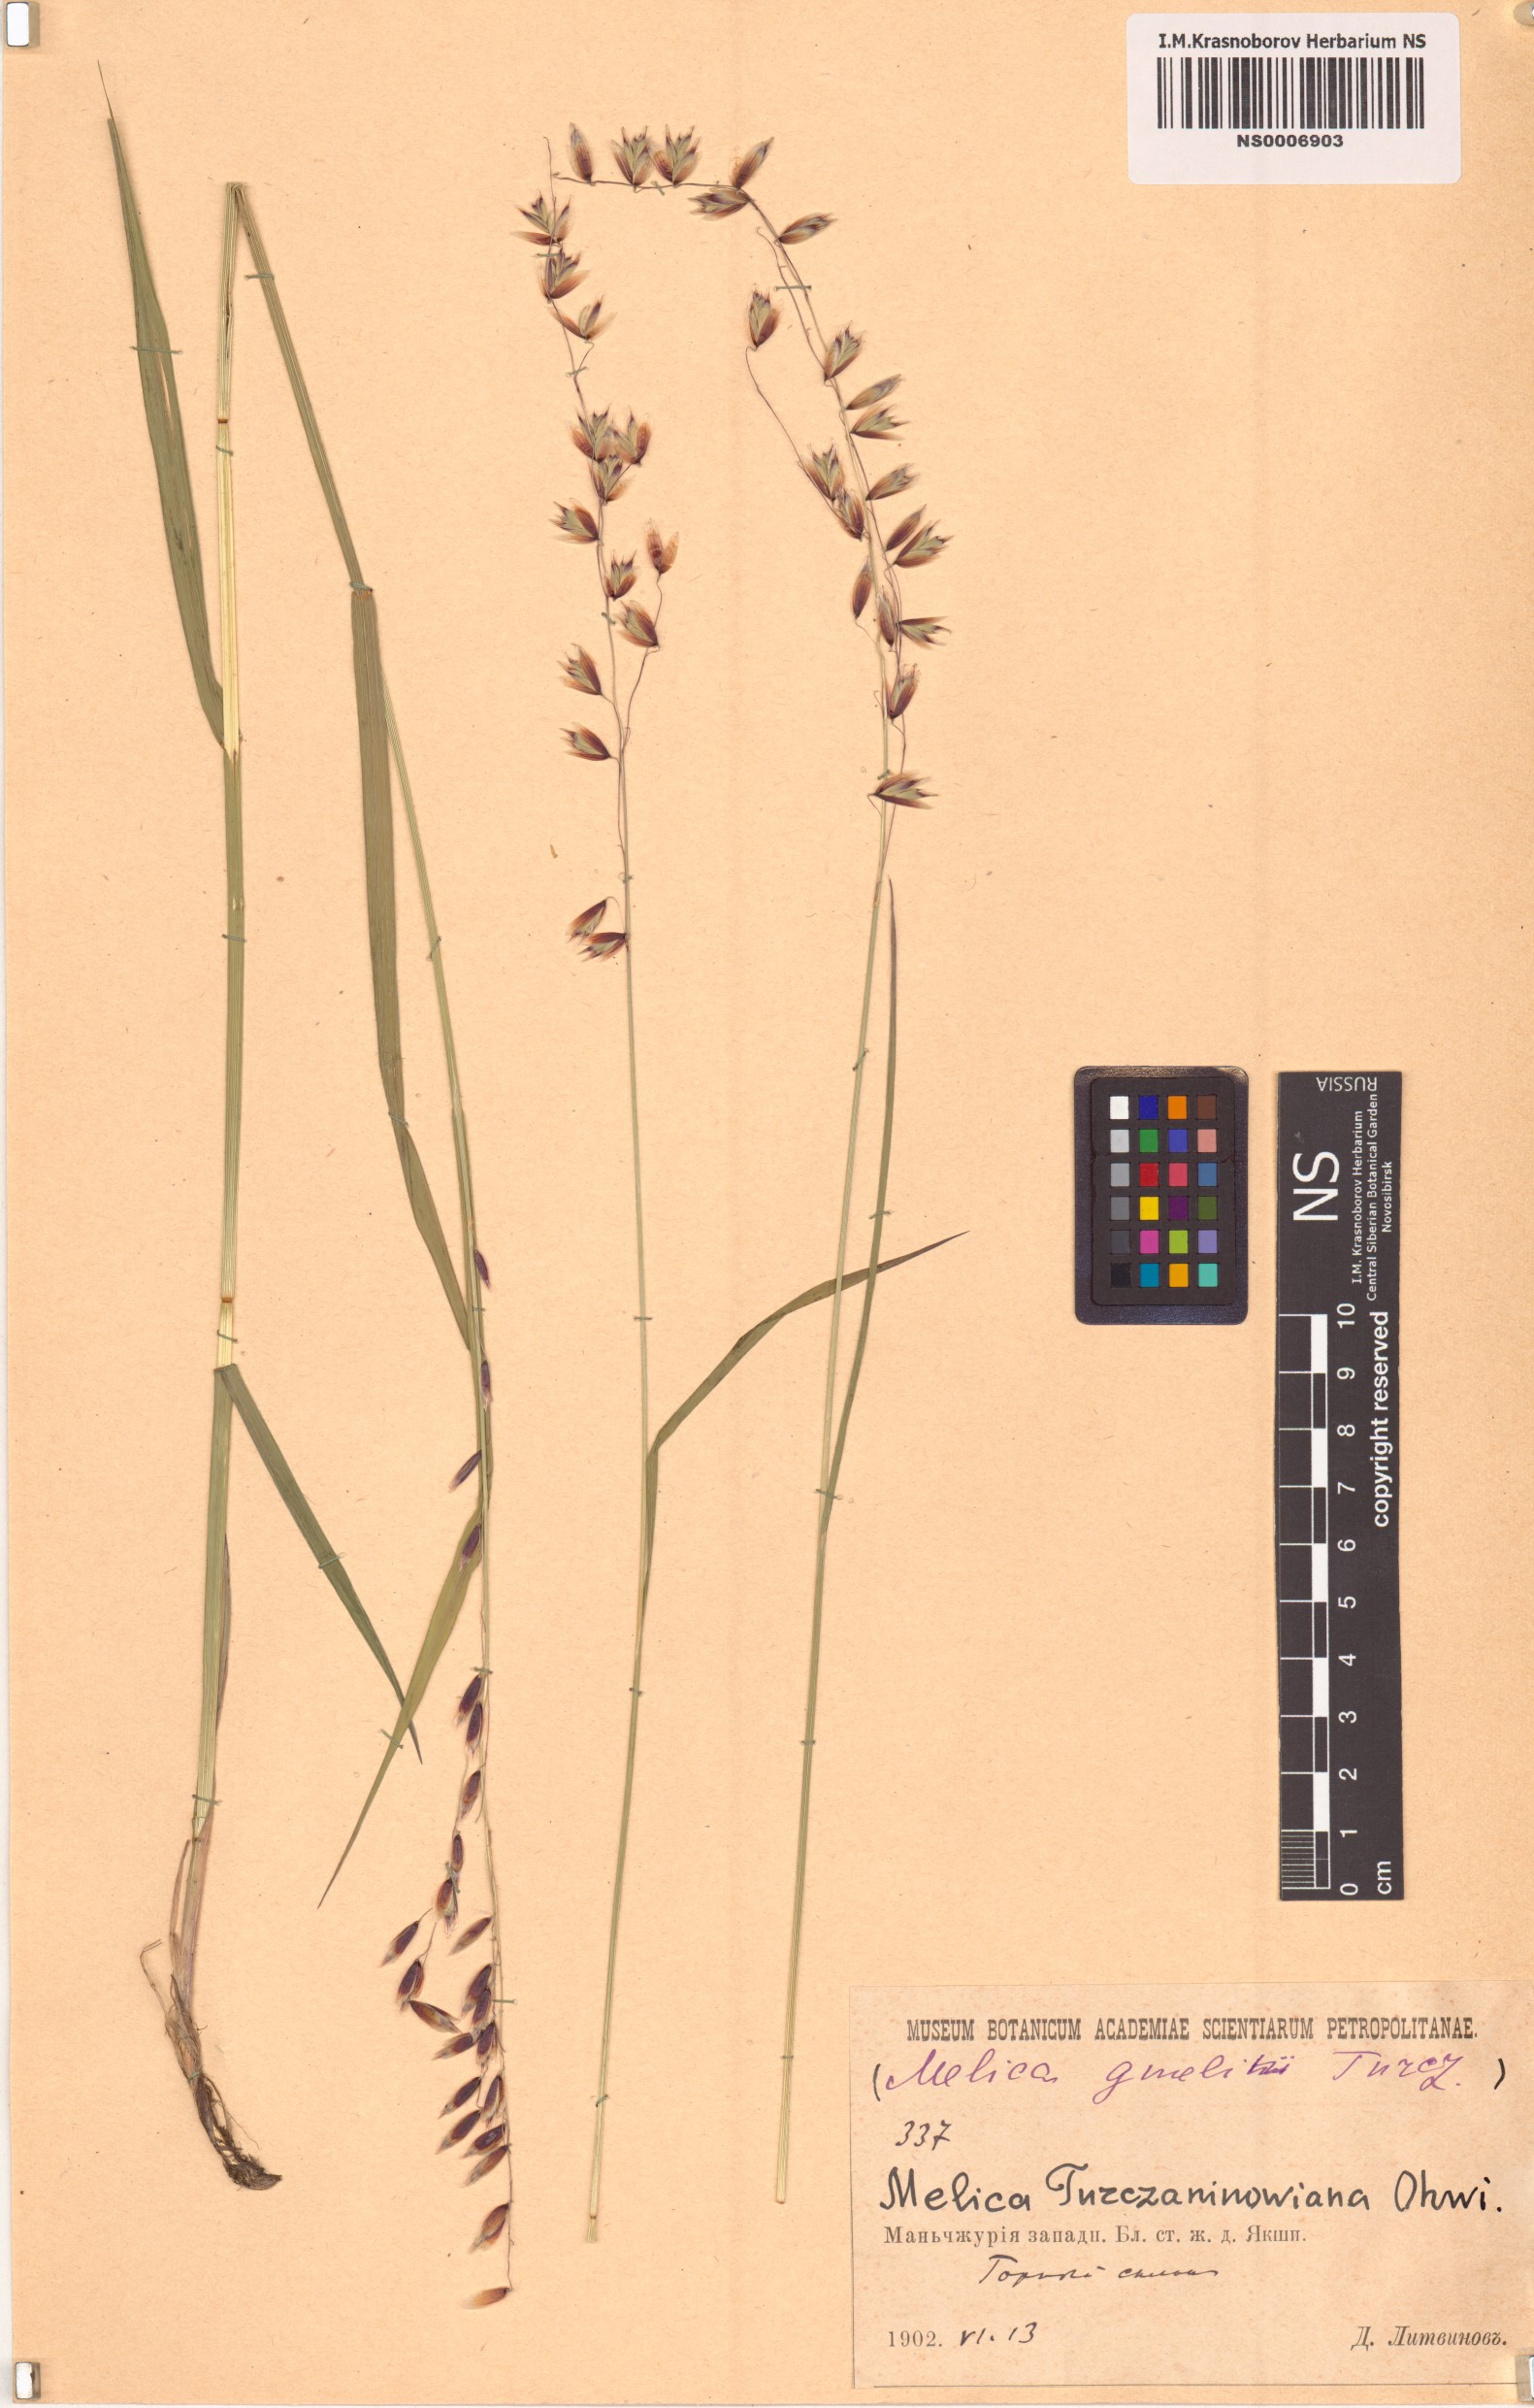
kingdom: Plantae
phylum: Tracheophyta
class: Liliopsida
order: Poales
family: Poaceae
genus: Melica
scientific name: Melica turczaninowiana
